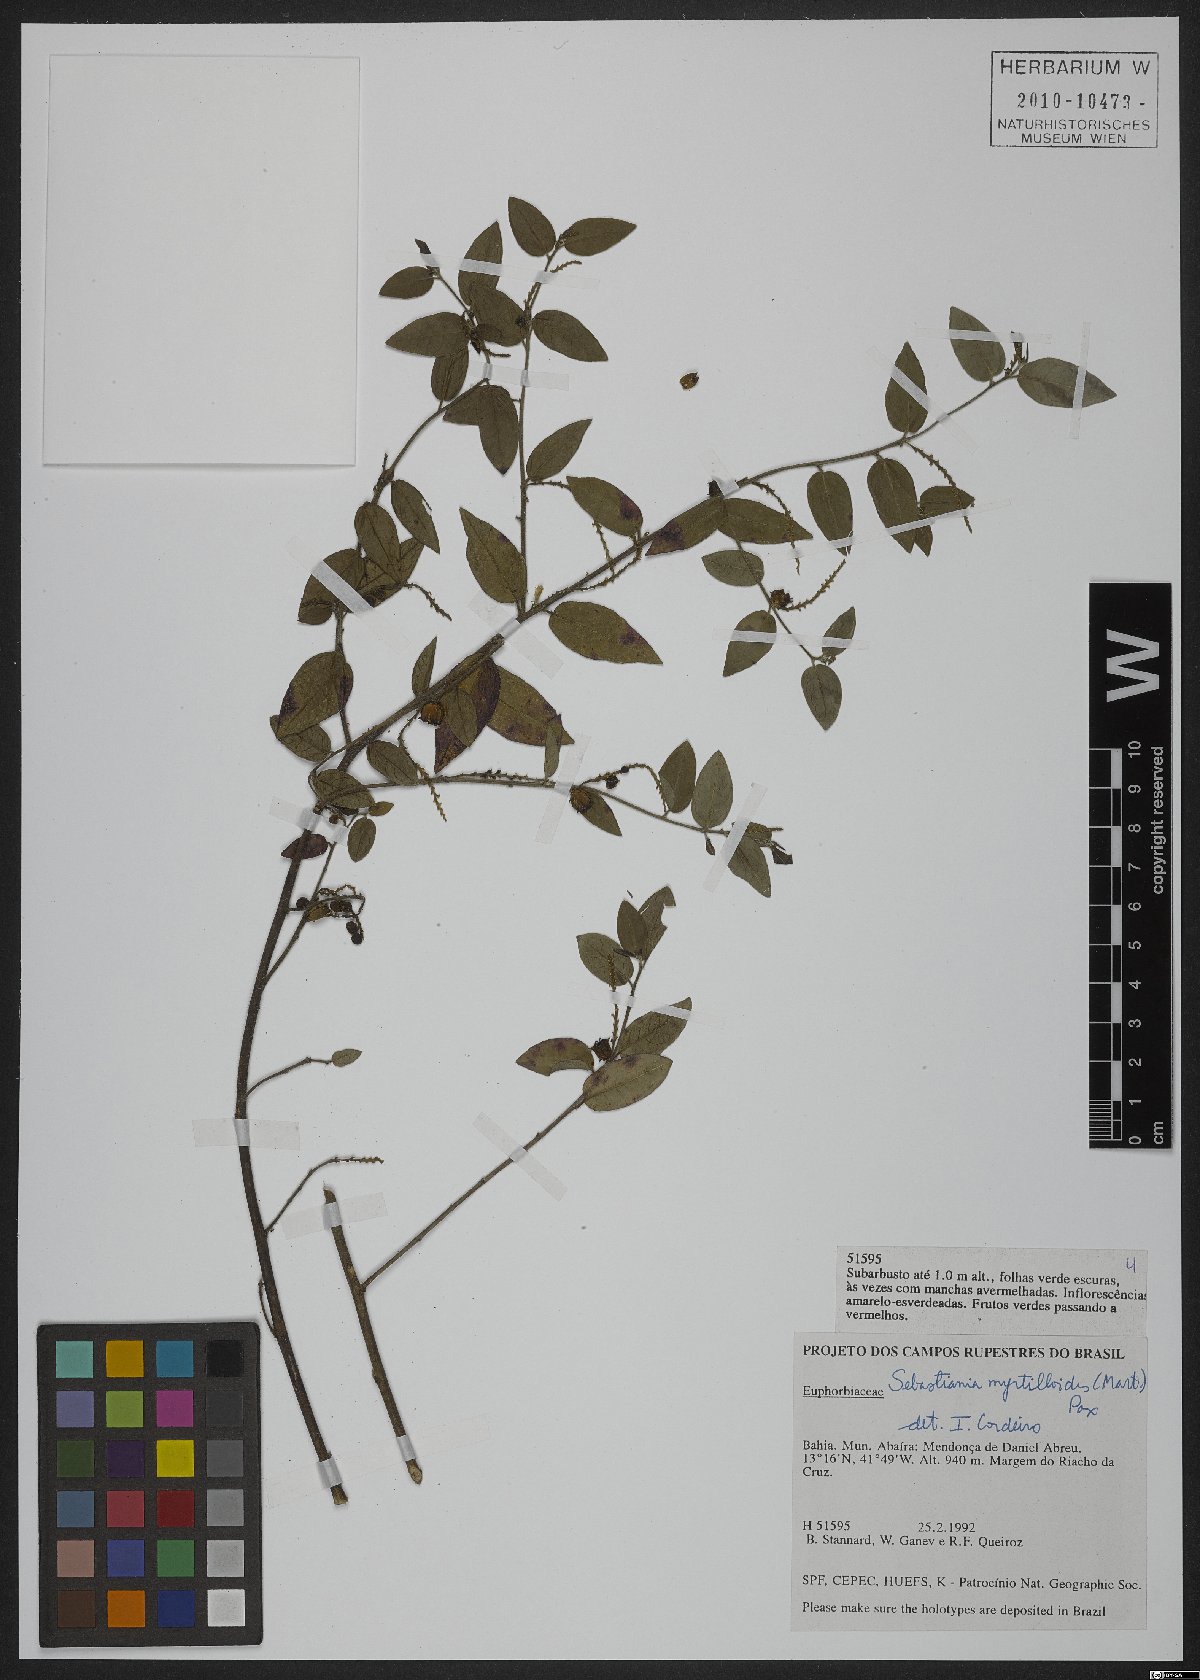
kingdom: Plantae
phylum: Tracheophyta
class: Magnoliopsida
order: Malpighiales
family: Euphorbiaceae
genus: Microstachys
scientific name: Microstachys daphnoides
